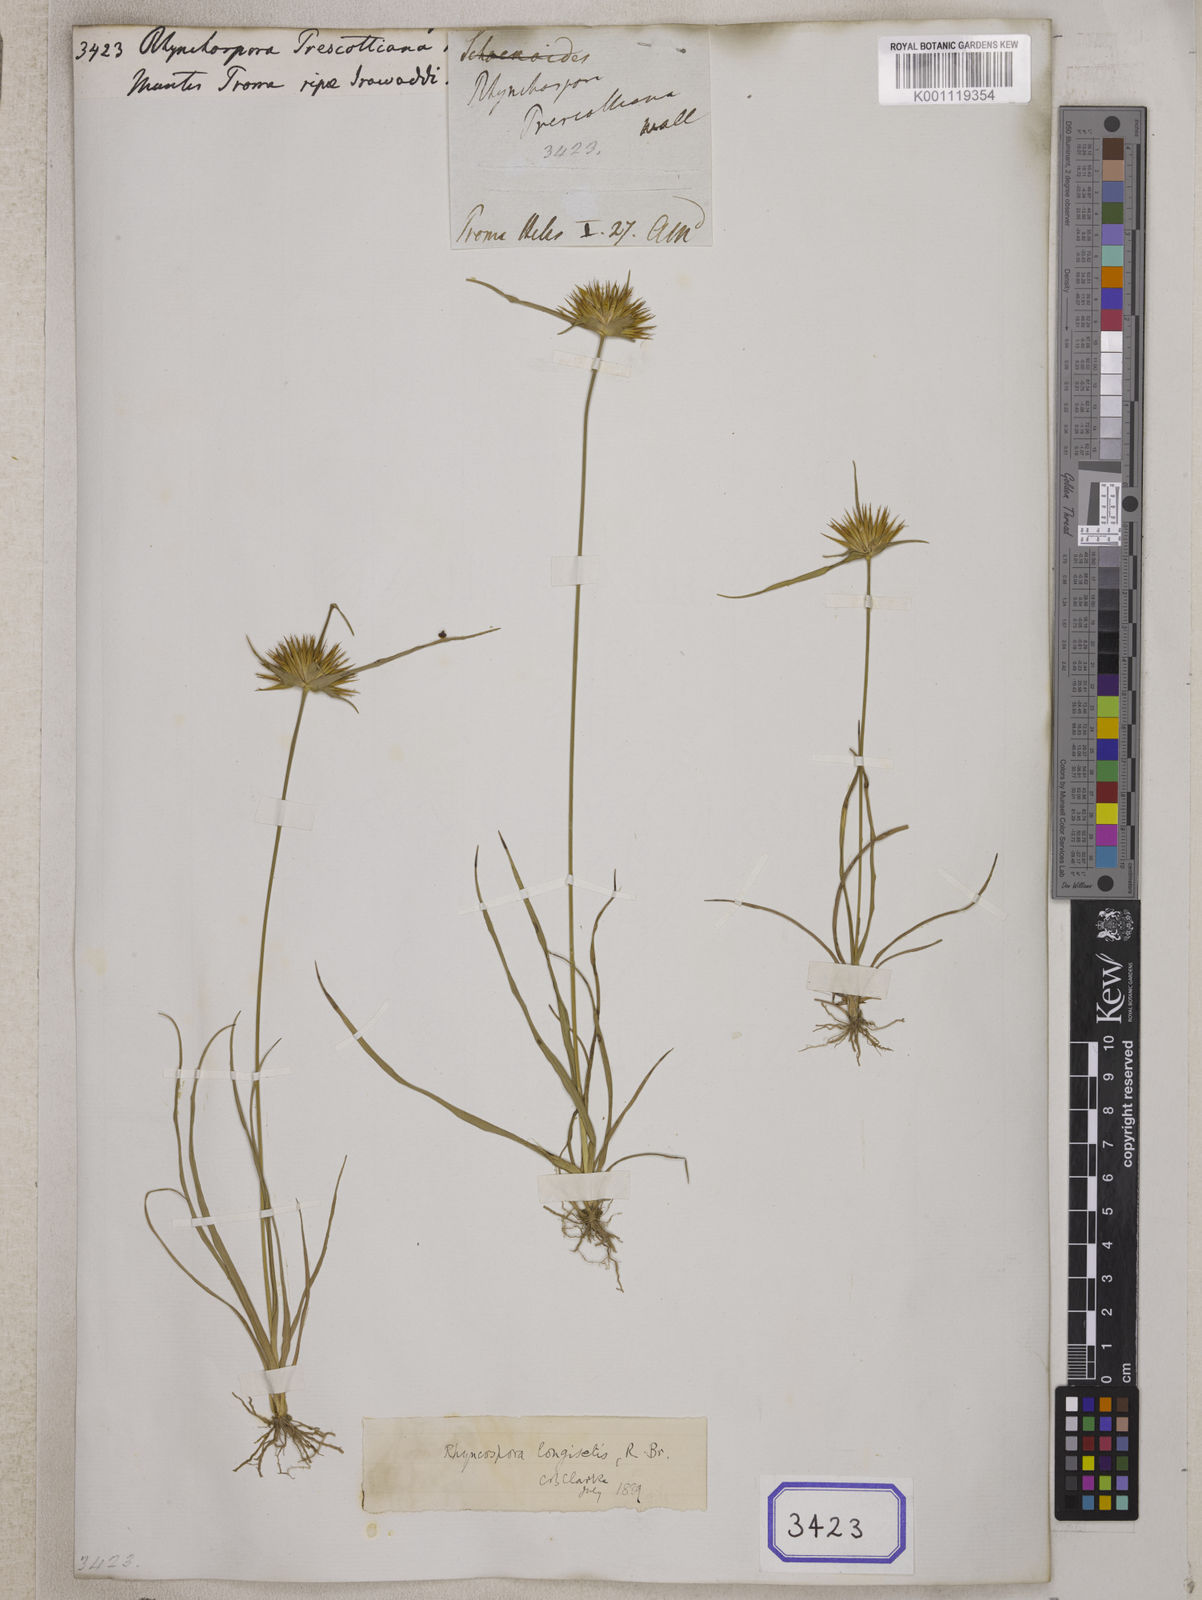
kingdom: Plantae
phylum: Tracheophyta
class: Liliopsida
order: Poales
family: Cyperaceae
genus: Rhynchospora
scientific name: Rhynchospora longisetis
